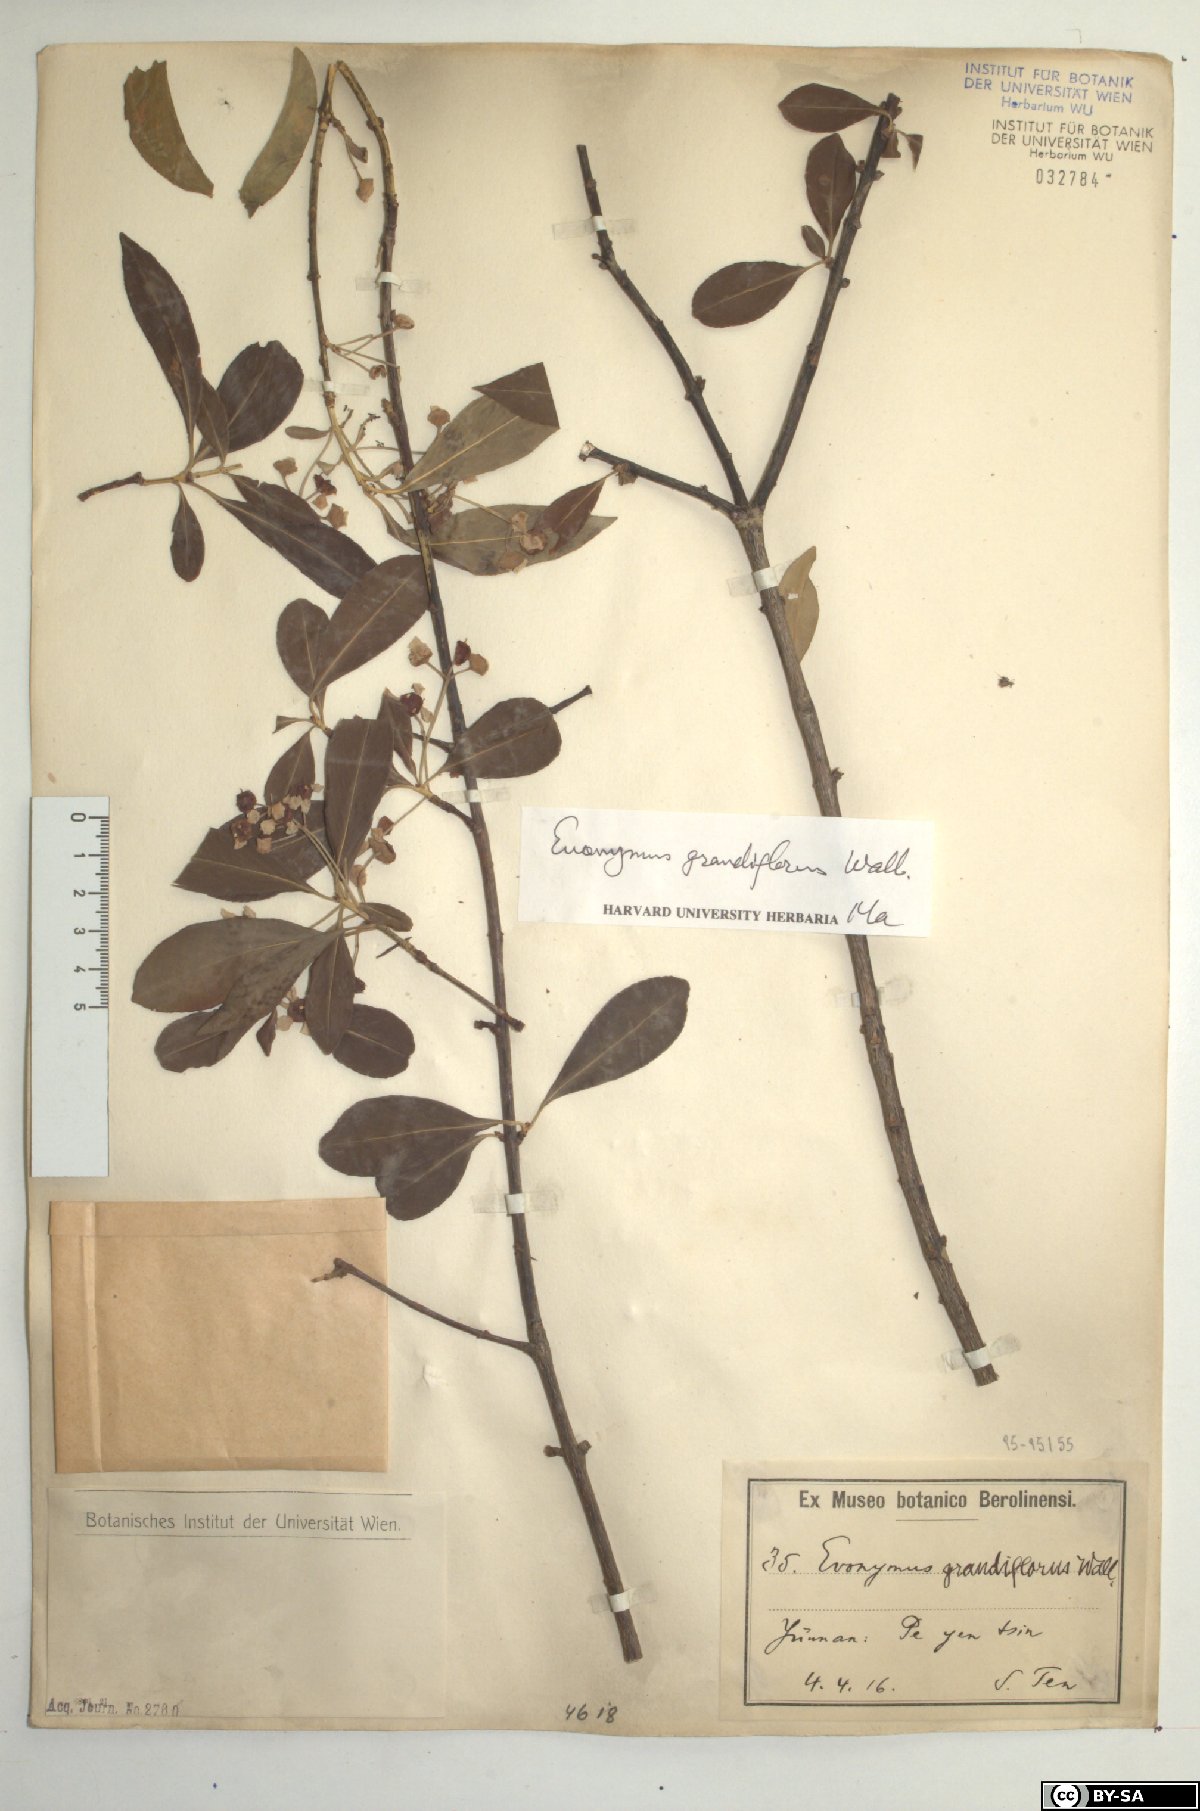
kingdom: Plantae
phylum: Tracheophyta
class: Magnoliopsida
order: Celastrales
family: Celastraceae
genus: Euonymus
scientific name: Euonymus grandiflorus
